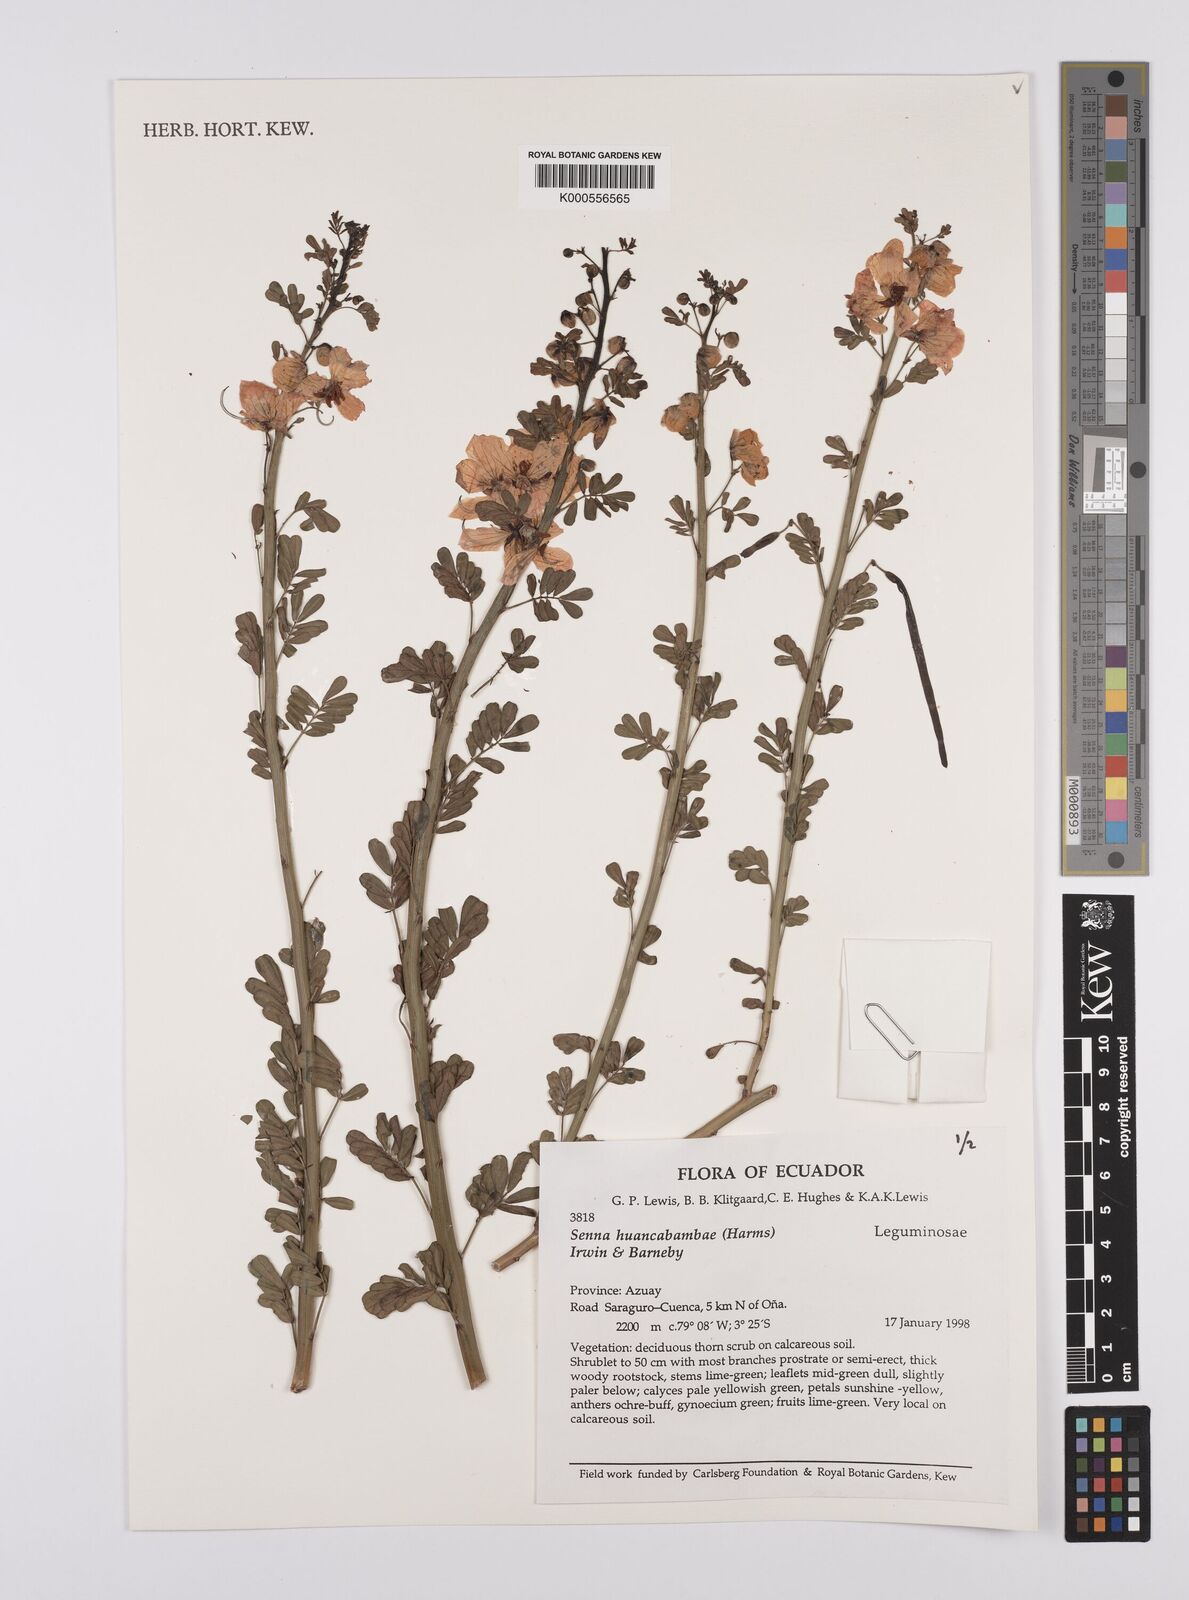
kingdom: Plantae
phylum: Tracheophyta
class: Magnoliopsida
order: Fabales
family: Fabaceae
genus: Senna
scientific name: Senna huancabambae
